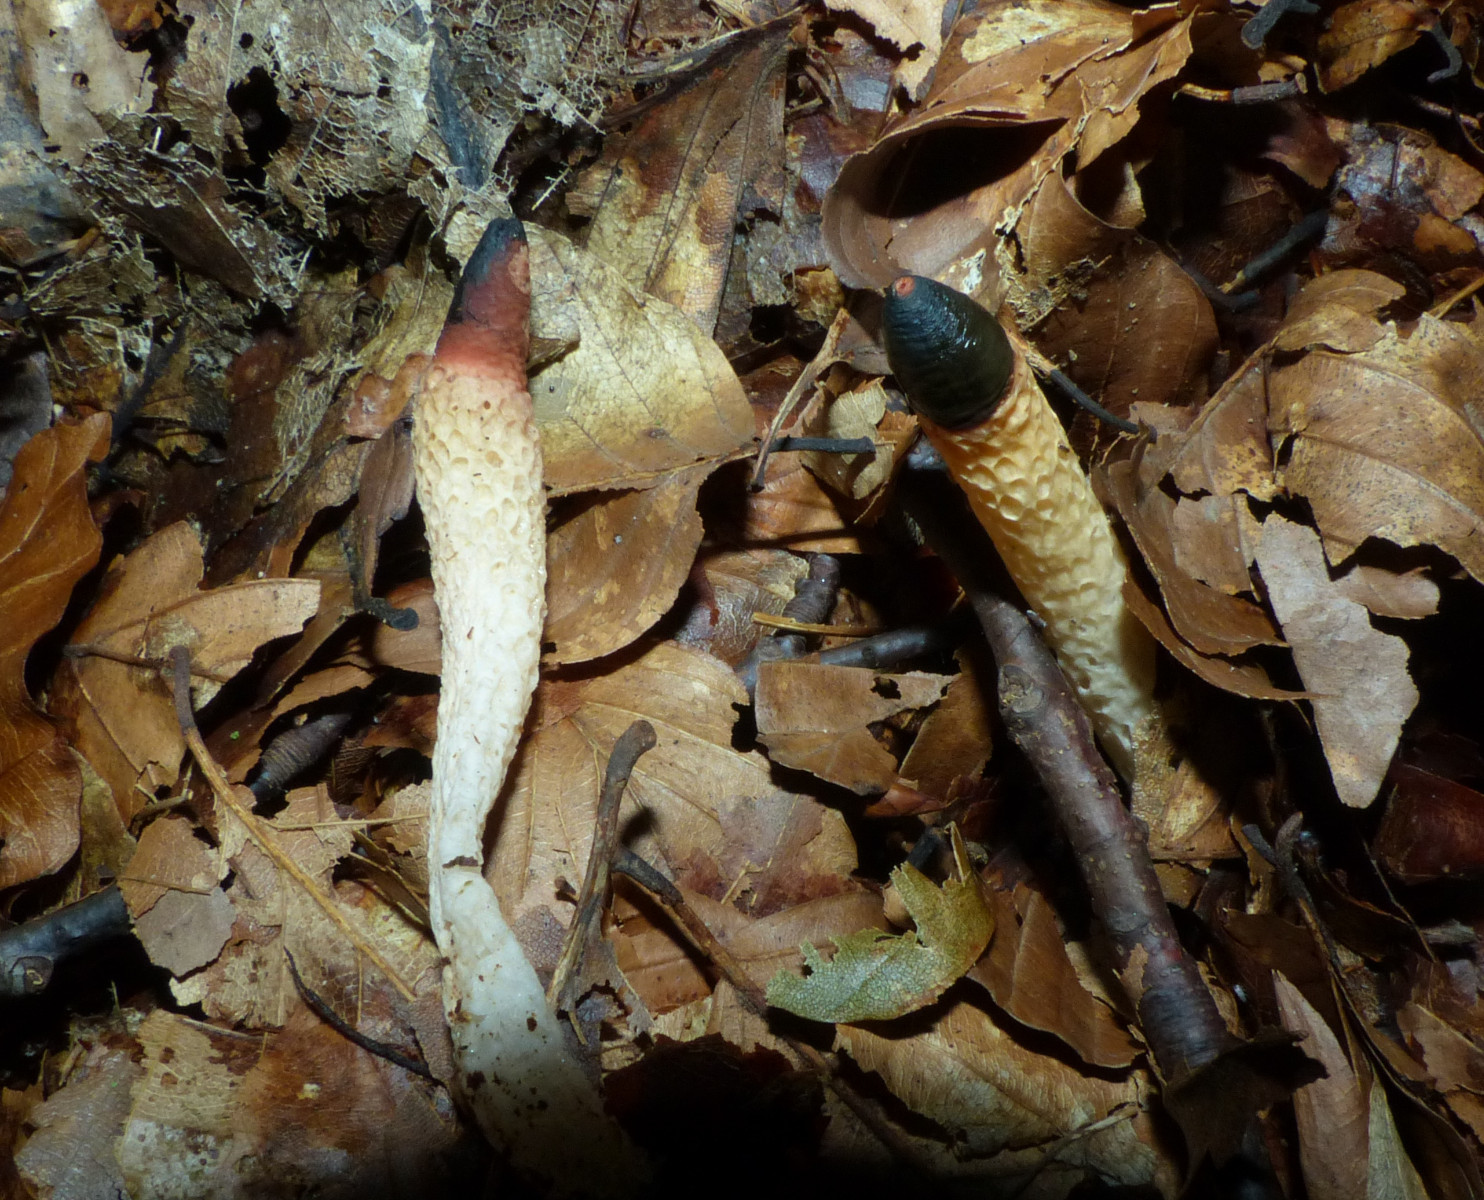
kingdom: Fungi
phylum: Basidiomycota
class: Agaricomycetes
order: Phallales
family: Phallaceae
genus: Mutinus
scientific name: Mutinus caninus
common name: hunde-stinksvamp
